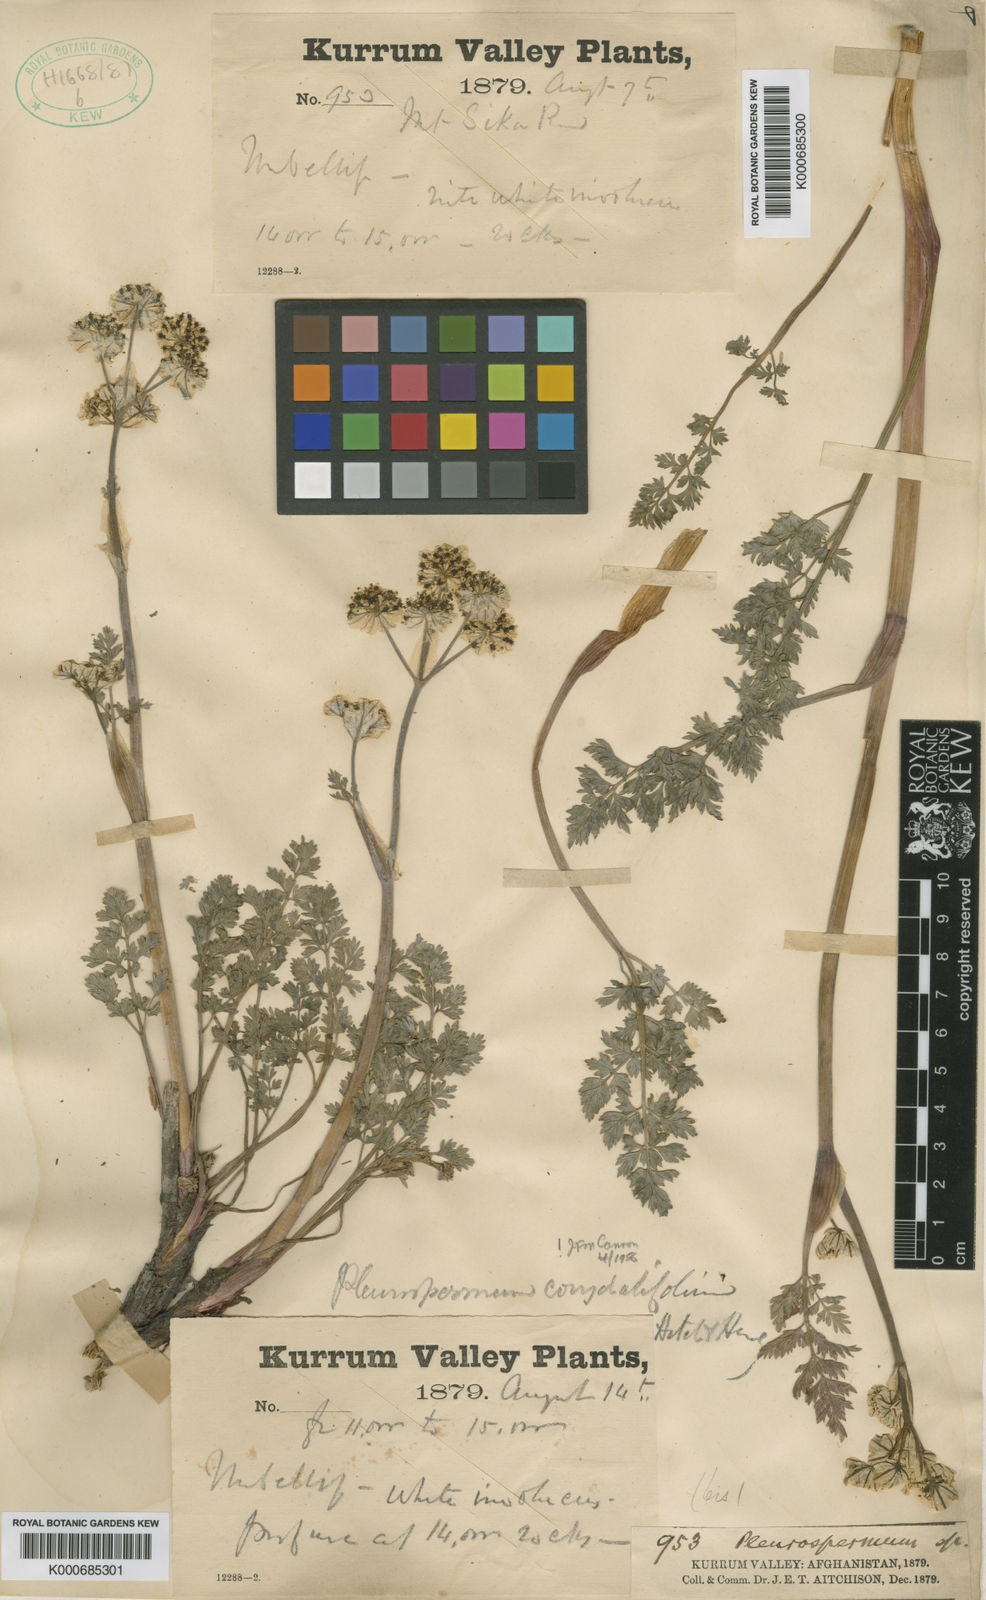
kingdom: Plantae
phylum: Tracheophyta
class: Magnoliopsida
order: Apiales
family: Apiaceae
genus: Hymenidium
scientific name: Hymenidium corydalifolium
